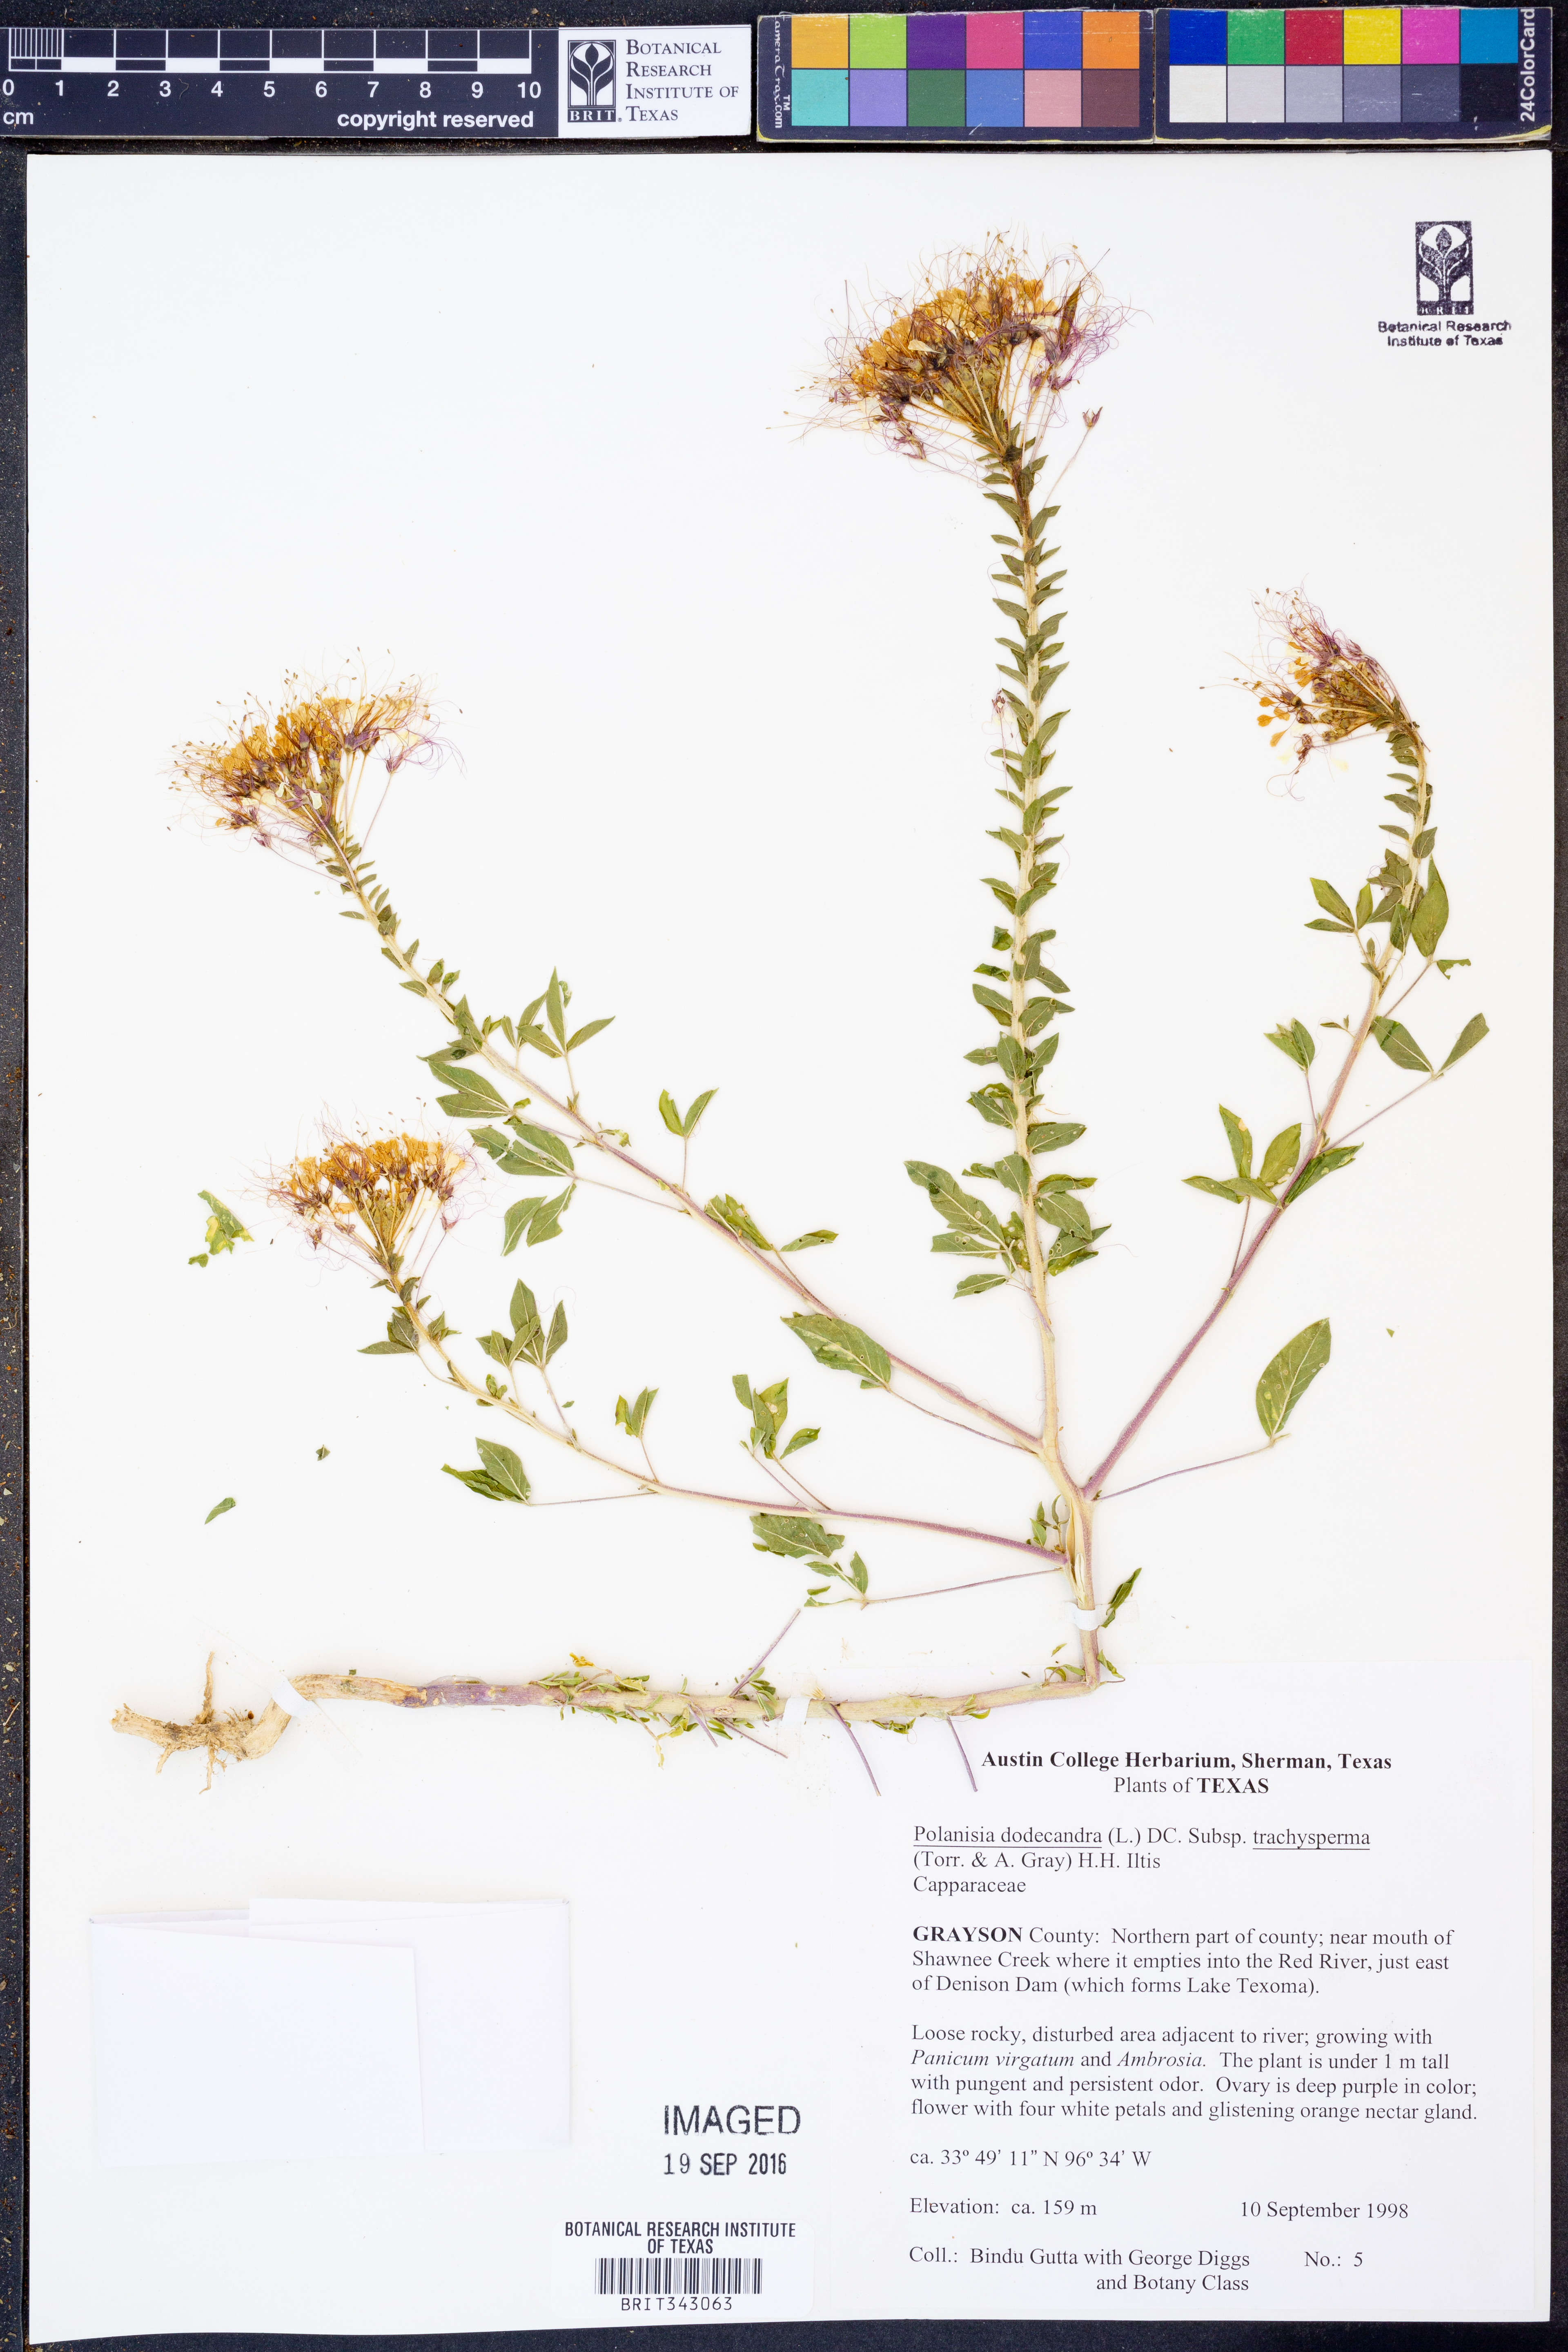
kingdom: Plantae
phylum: Tracheophyta
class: Magnoliopsida
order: Brassicales
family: Cleomaceae
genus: Polanisia
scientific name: Polanisia trachysperma
